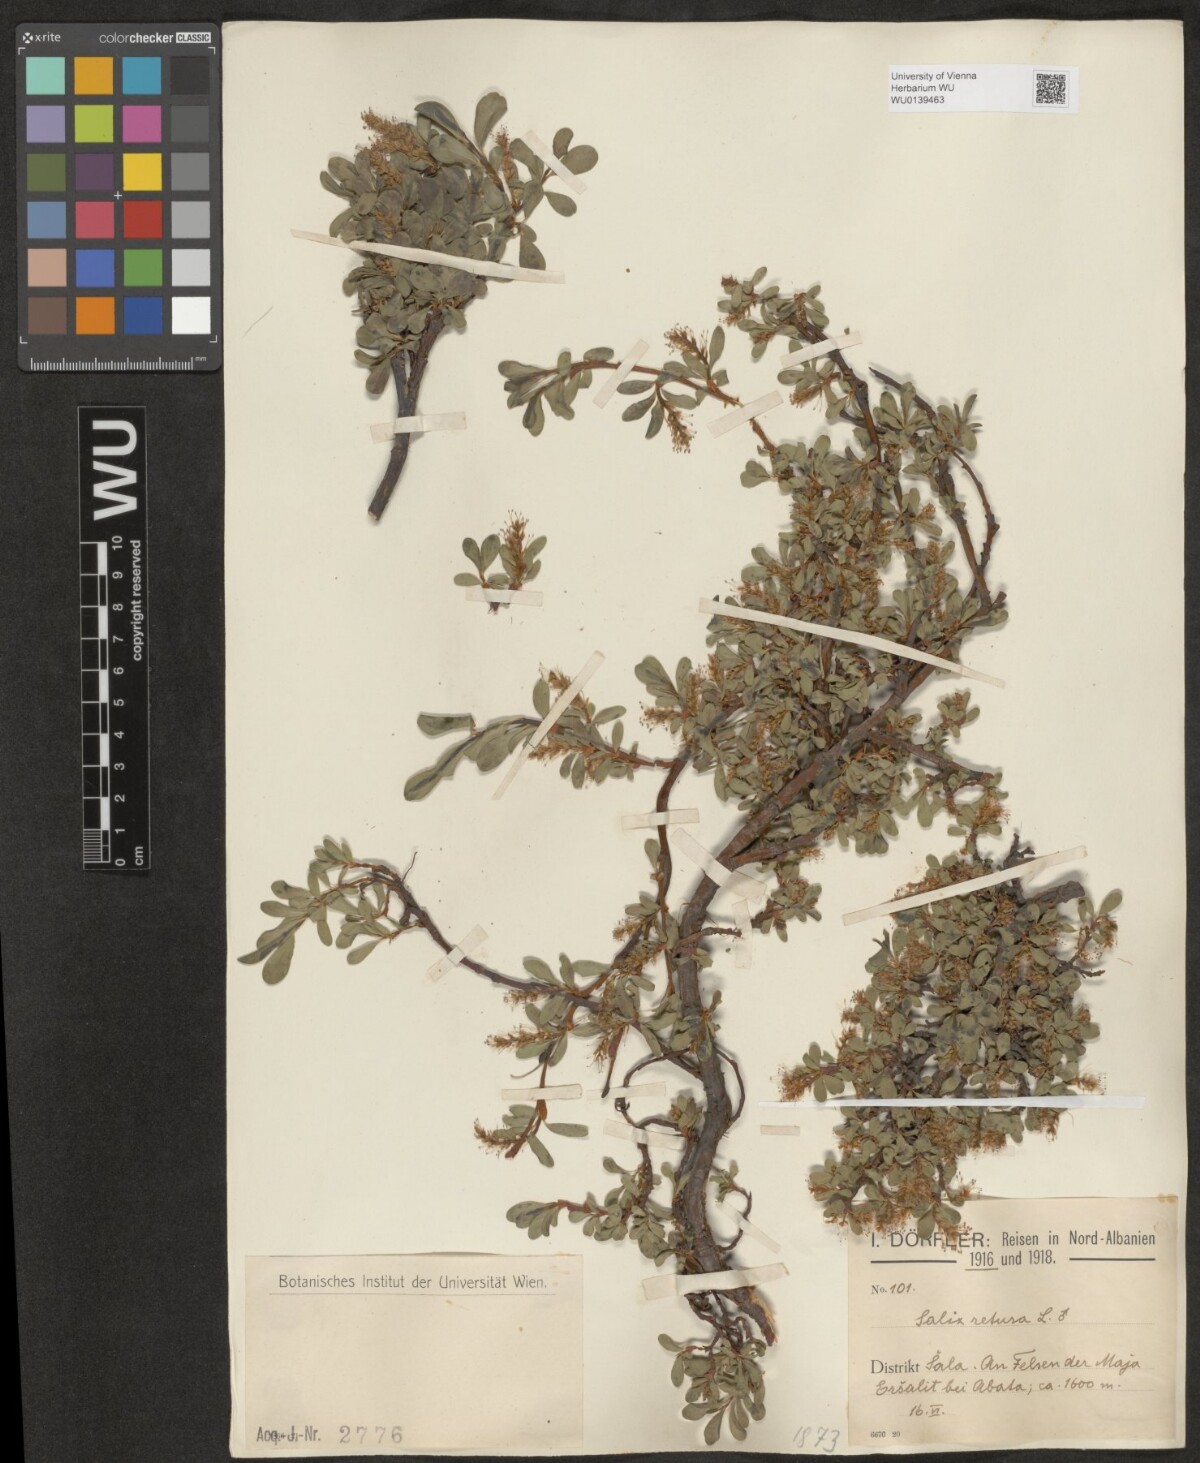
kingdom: Plantae
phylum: Tracheophyta
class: Magnoliopsida
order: Malpighiales
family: Salicaceae
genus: Salix
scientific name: Salix retusa
